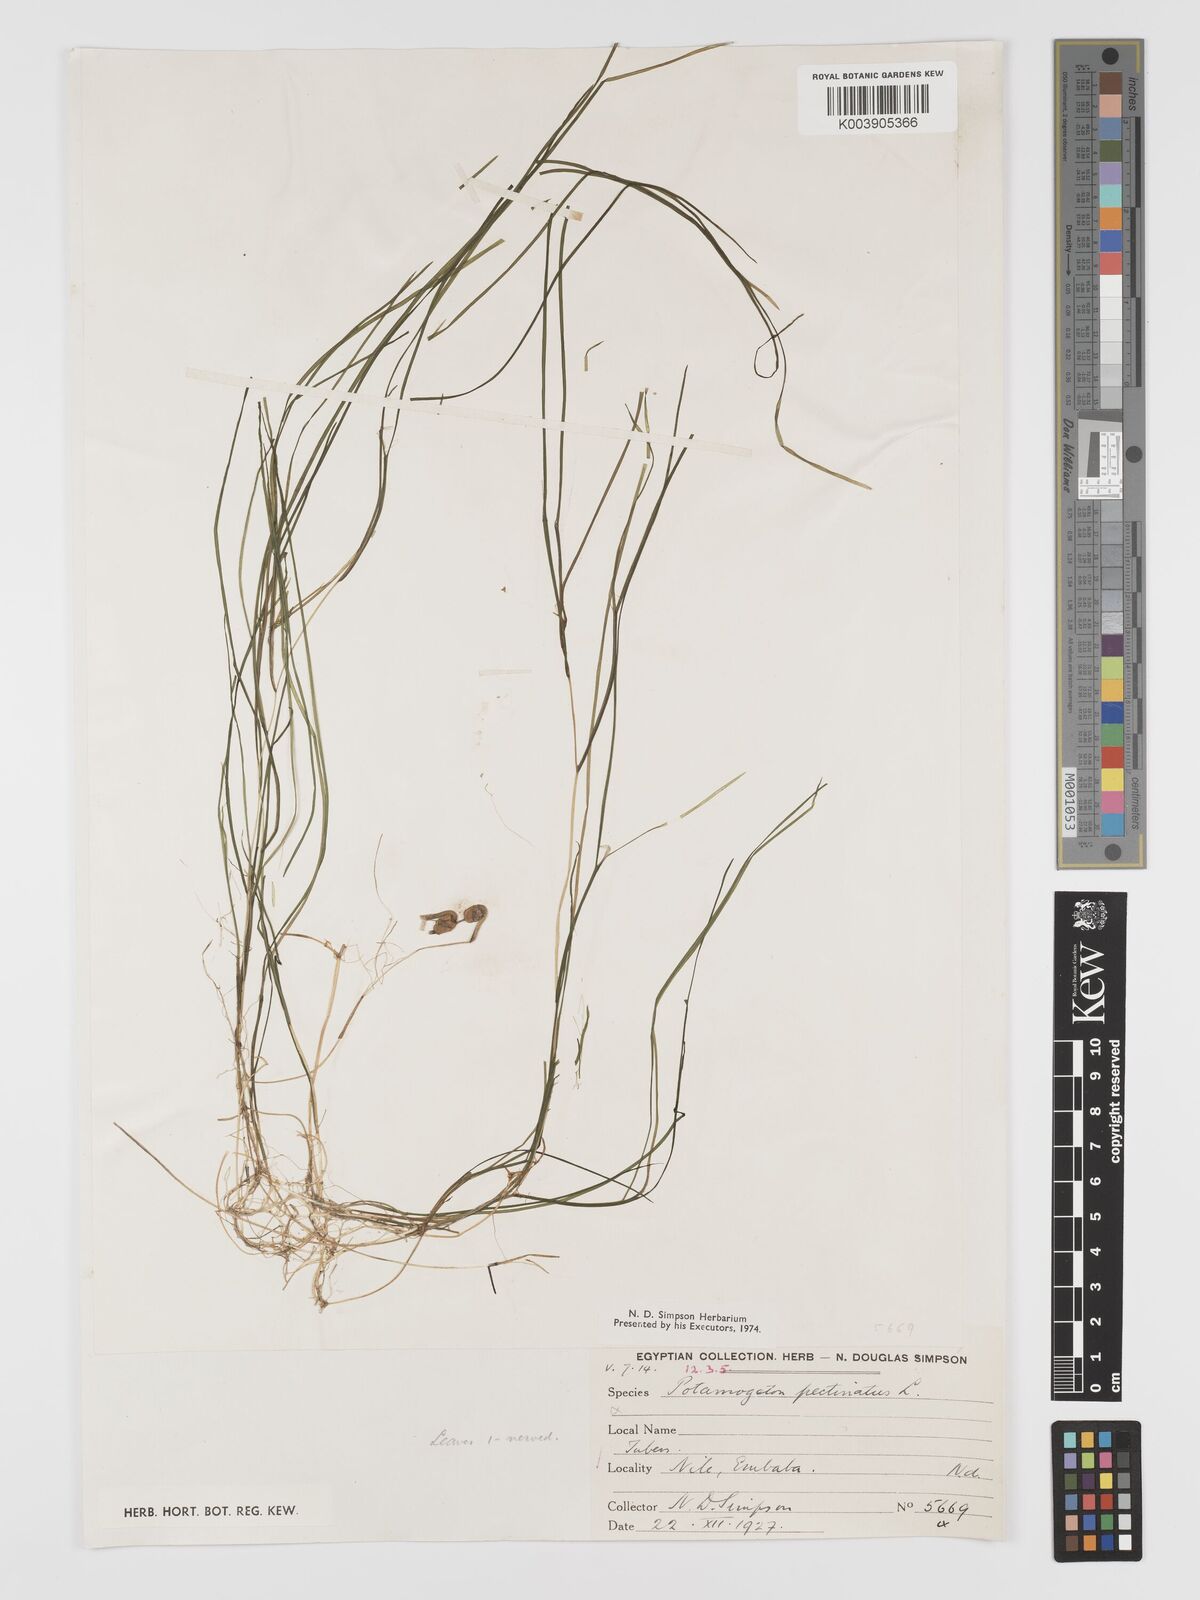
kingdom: Plantae
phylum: Tracheophyta
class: Liliopsida
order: Alismatales
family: Potamogetonaceae
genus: Stuckenia
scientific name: Stuckenia pectinata
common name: Sago pondweed
